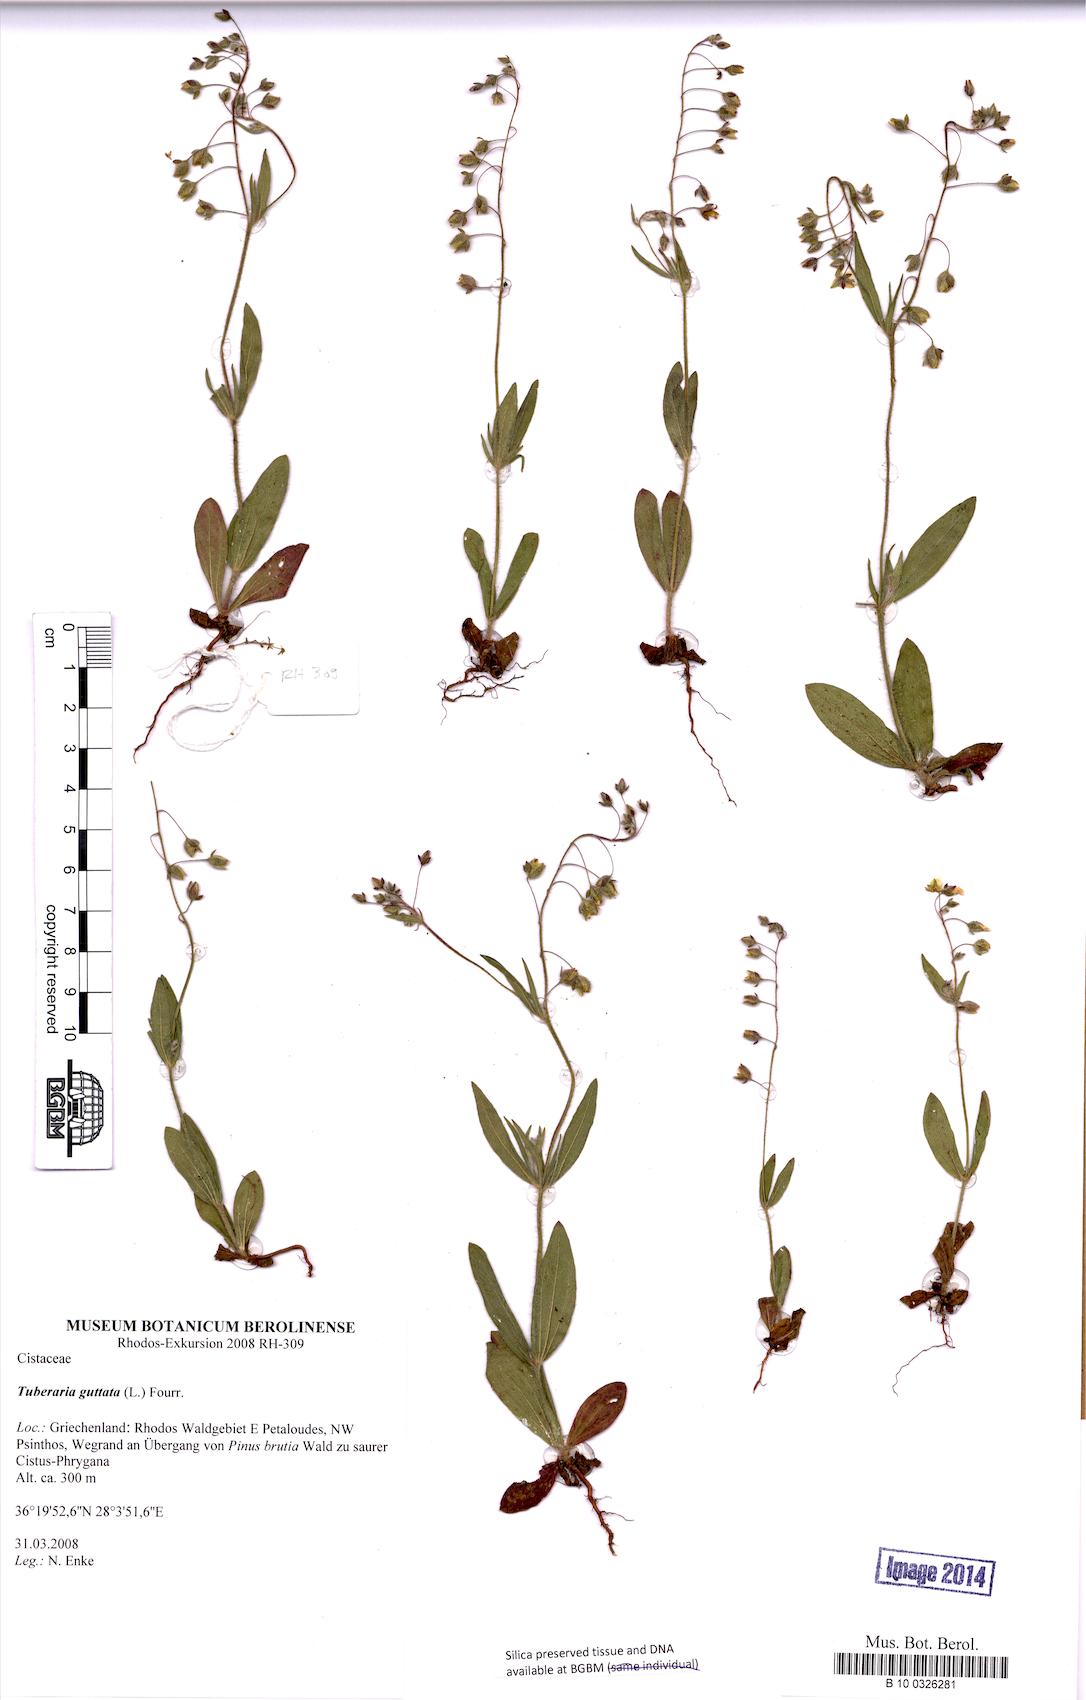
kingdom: Plantae
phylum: Tracheophyta
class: Magnoliopsida
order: Malvales
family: Cistaceae
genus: Tuberaria
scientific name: Tuberaria guttata
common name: Spotted rock-rose
